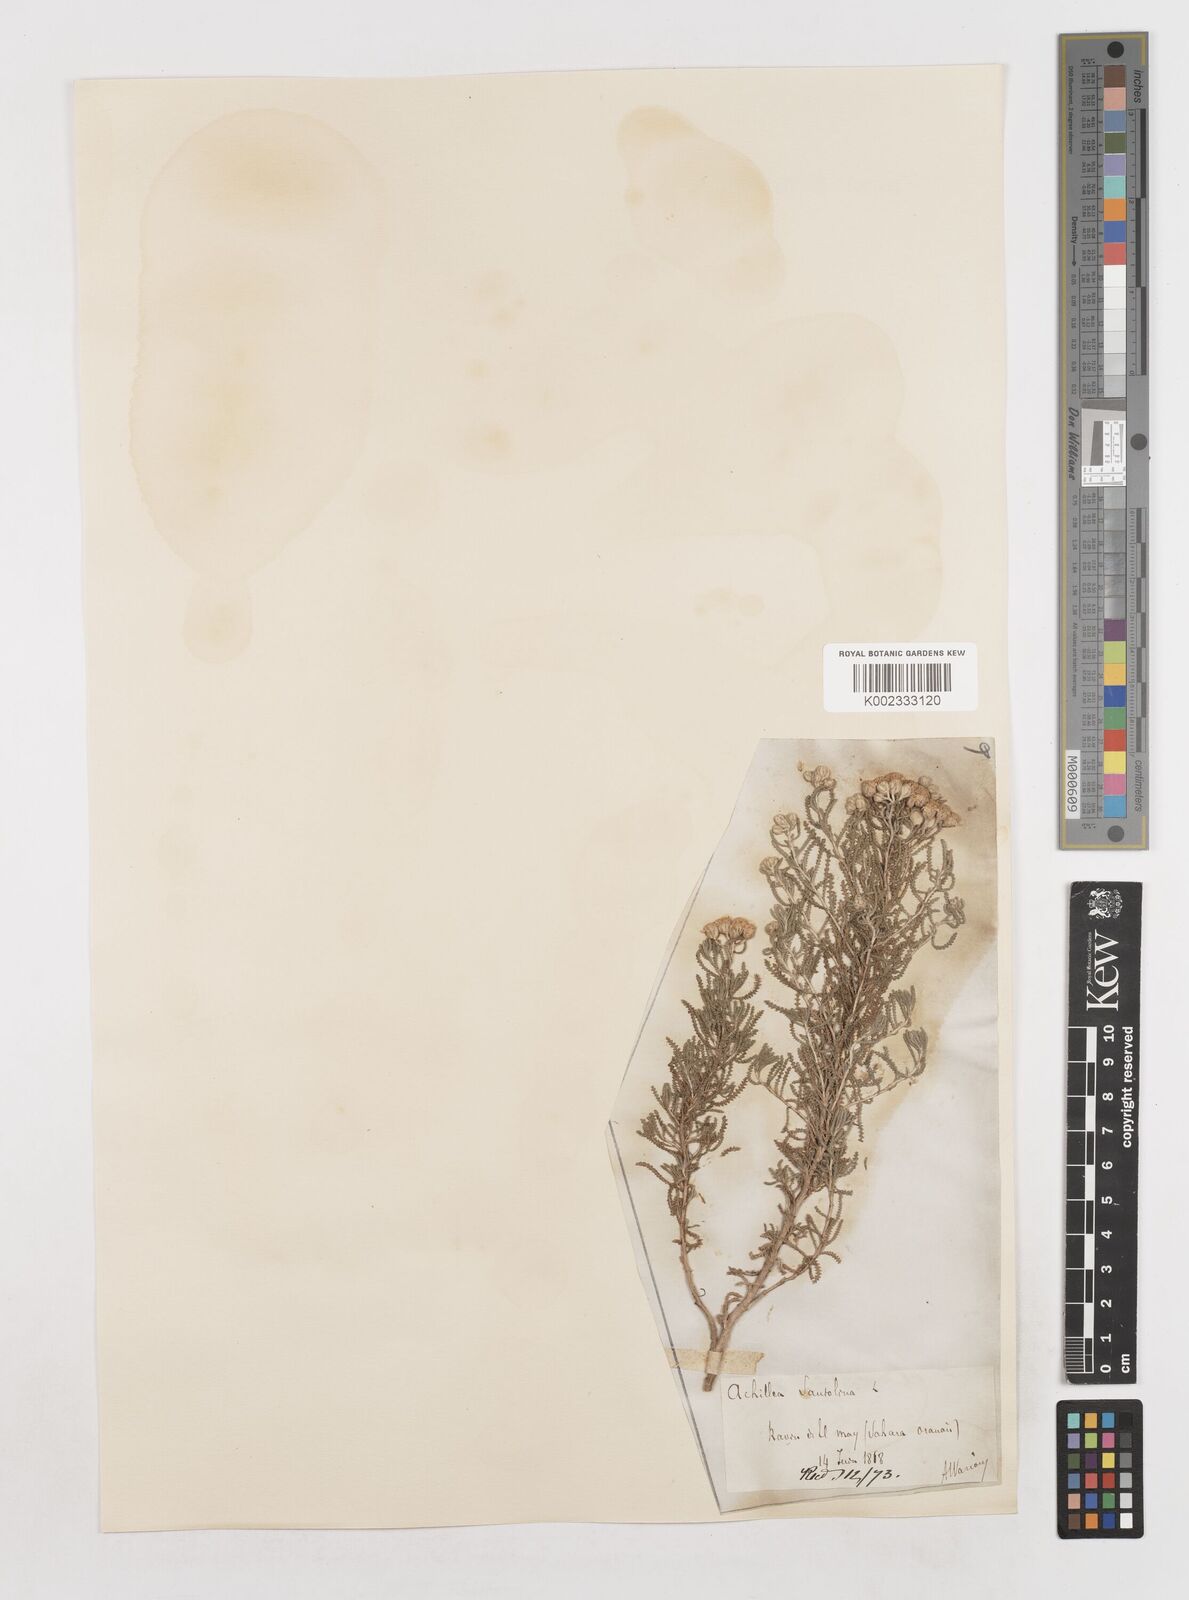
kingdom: Plantae
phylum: Tracheophyta
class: Magnoliopsida
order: Asterales
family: Asteraceae
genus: Achillea
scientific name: Achillea tenuifolia
